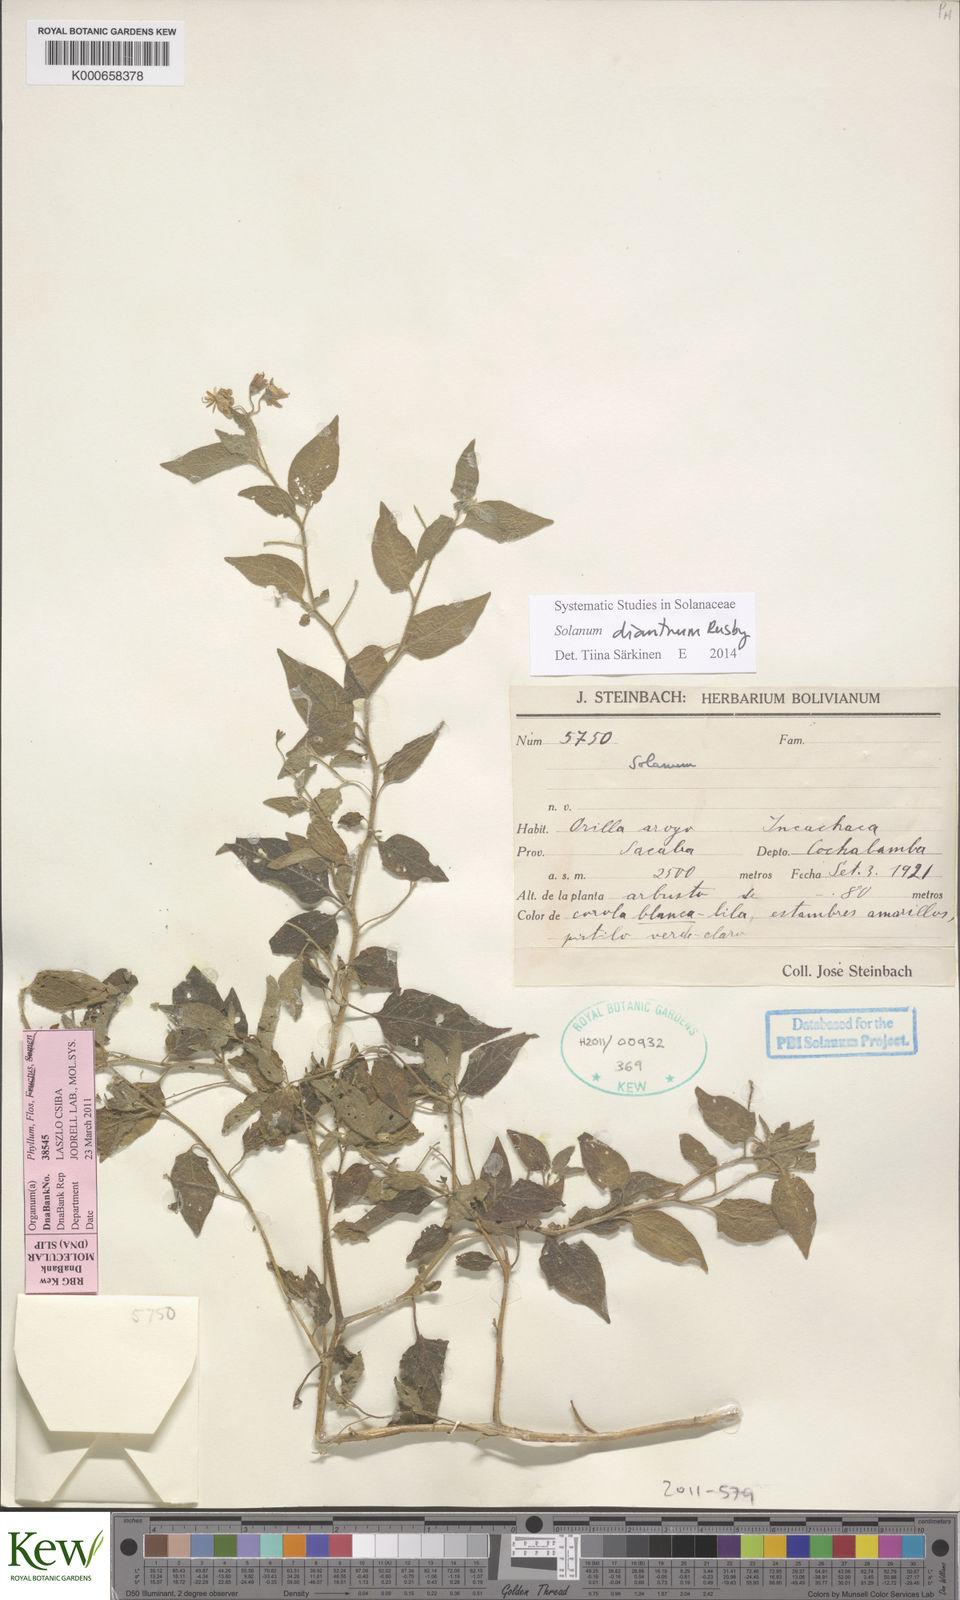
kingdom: Plantae
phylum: Tracheophyta
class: Magnoliopsida
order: Solanales
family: Solanaceae
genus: Solanum
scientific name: Solanum dianthum
